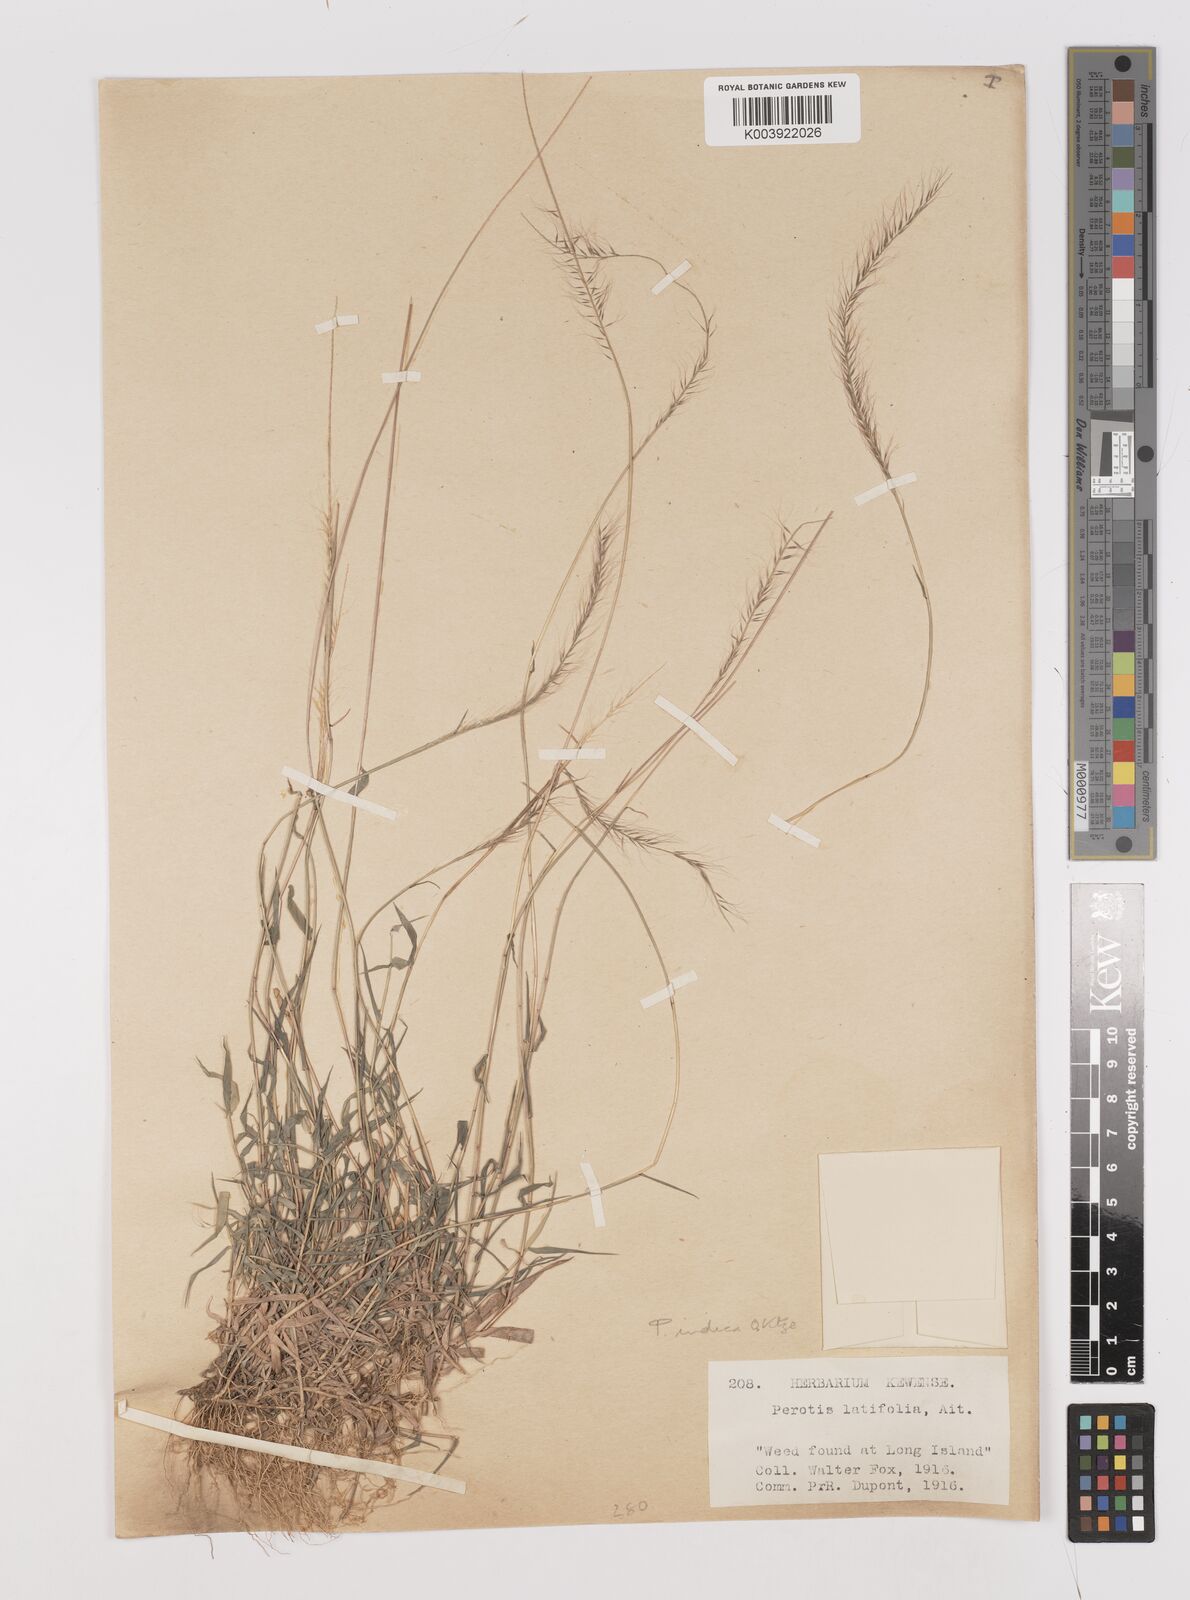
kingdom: Plantae
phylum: Tracheophyta
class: Liliopsida
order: Poales
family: Poaceae
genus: Perotis
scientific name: Perotis hildebrandtii
